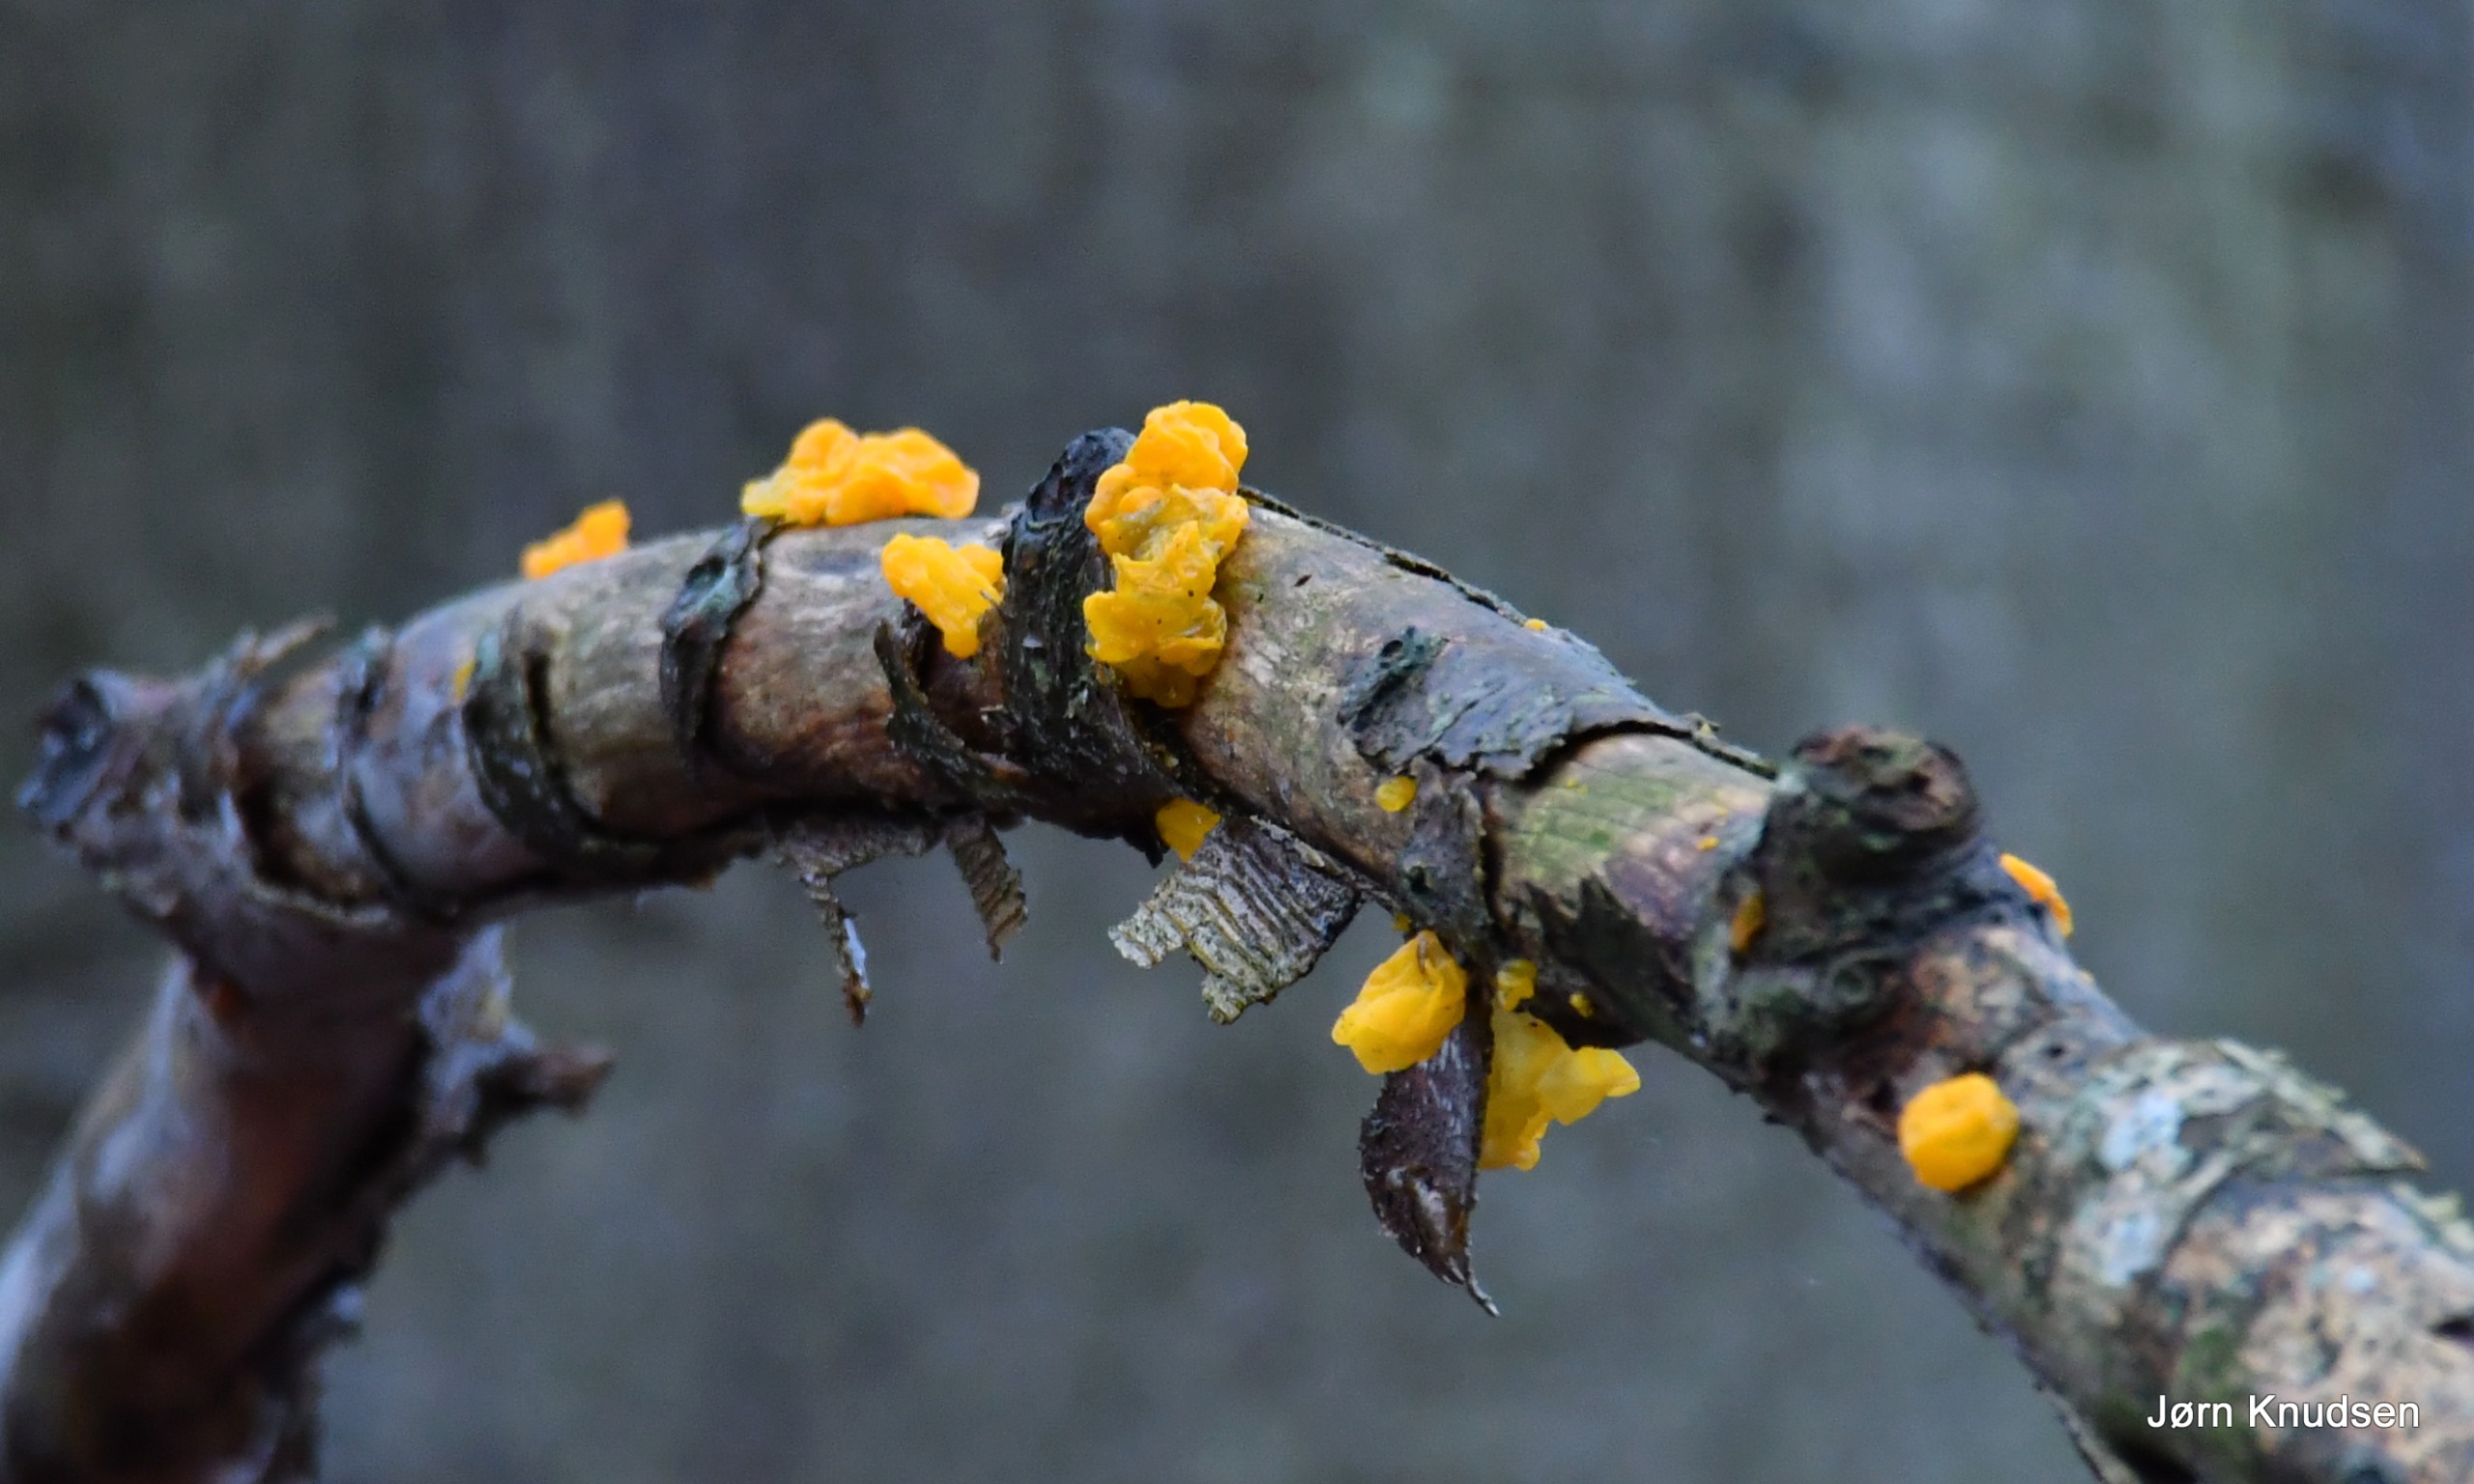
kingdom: Fungi
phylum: Basidiomycota
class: Tremellomycetes
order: Tremellales
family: Tremellaceae
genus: Tremella
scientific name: Tremella mesenterica
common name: Gul bævresvamp
